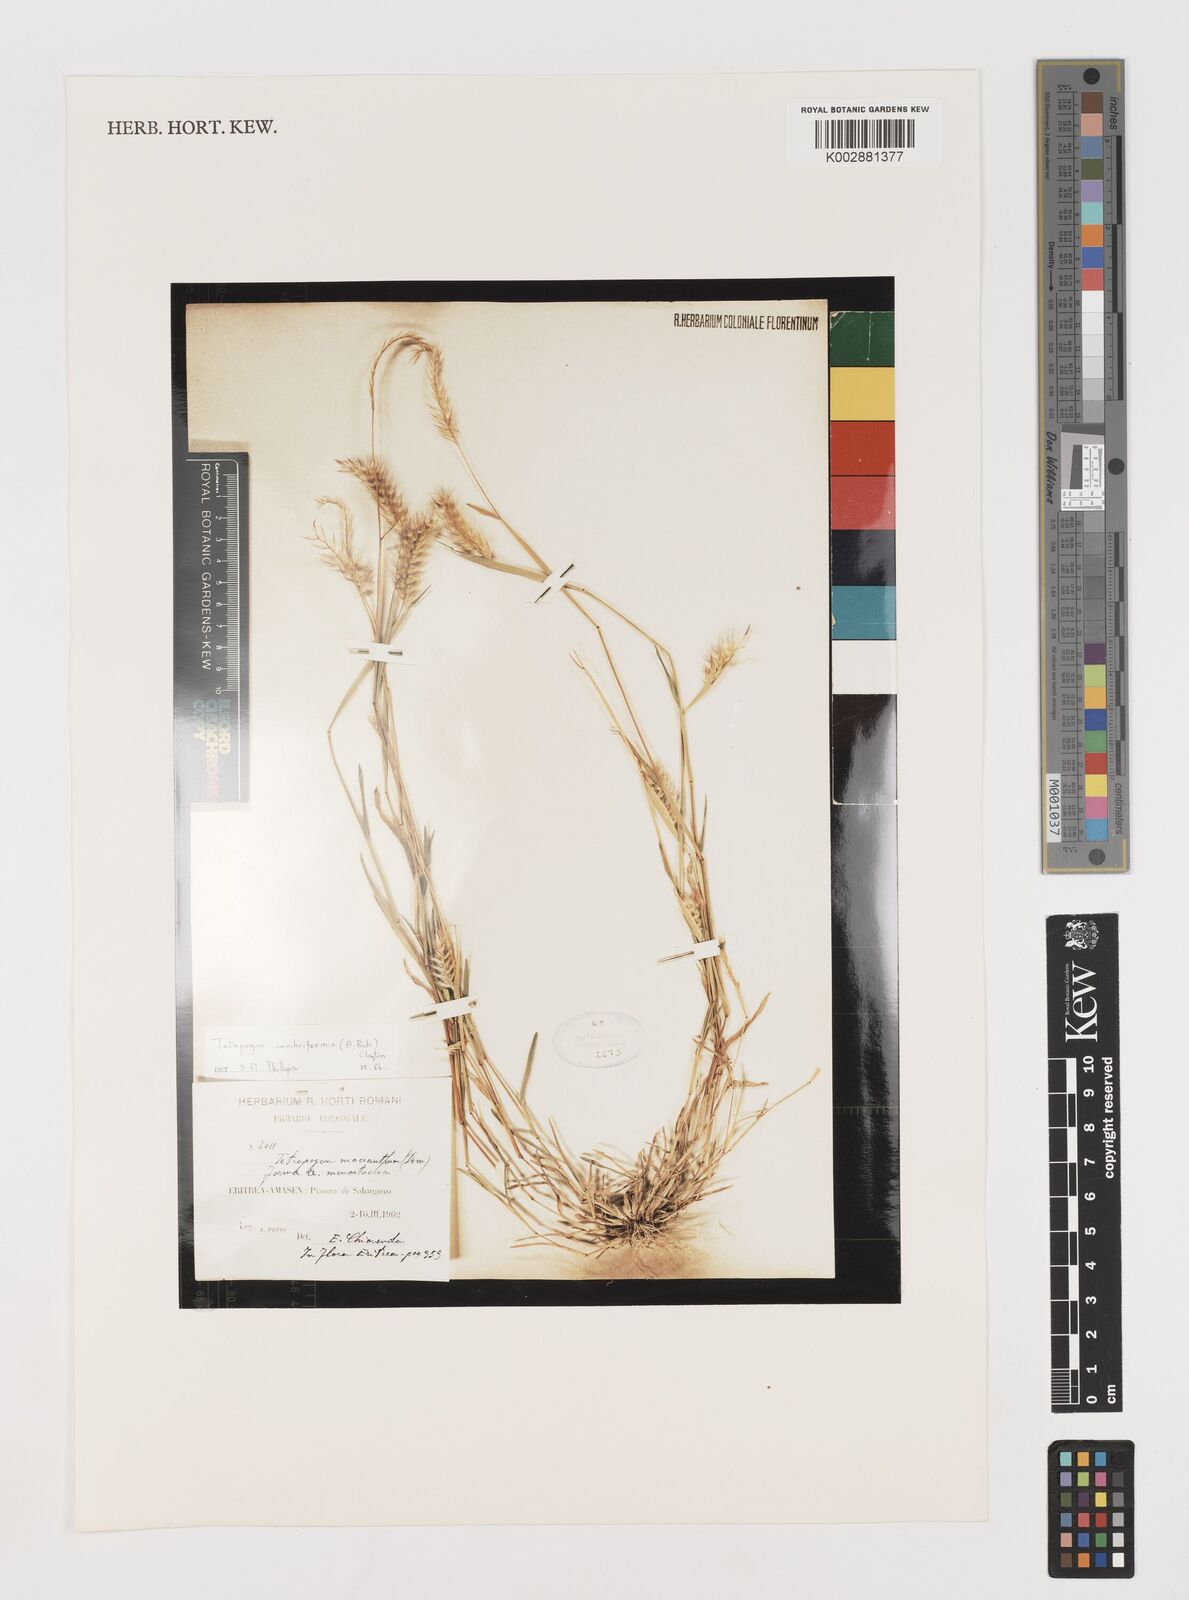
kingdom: Plantae
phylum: Tracheophyta
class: Liliopsida
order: Poales
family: Poaceae
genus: Tetrapogon
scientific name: Tetrapogon cenchriformis
